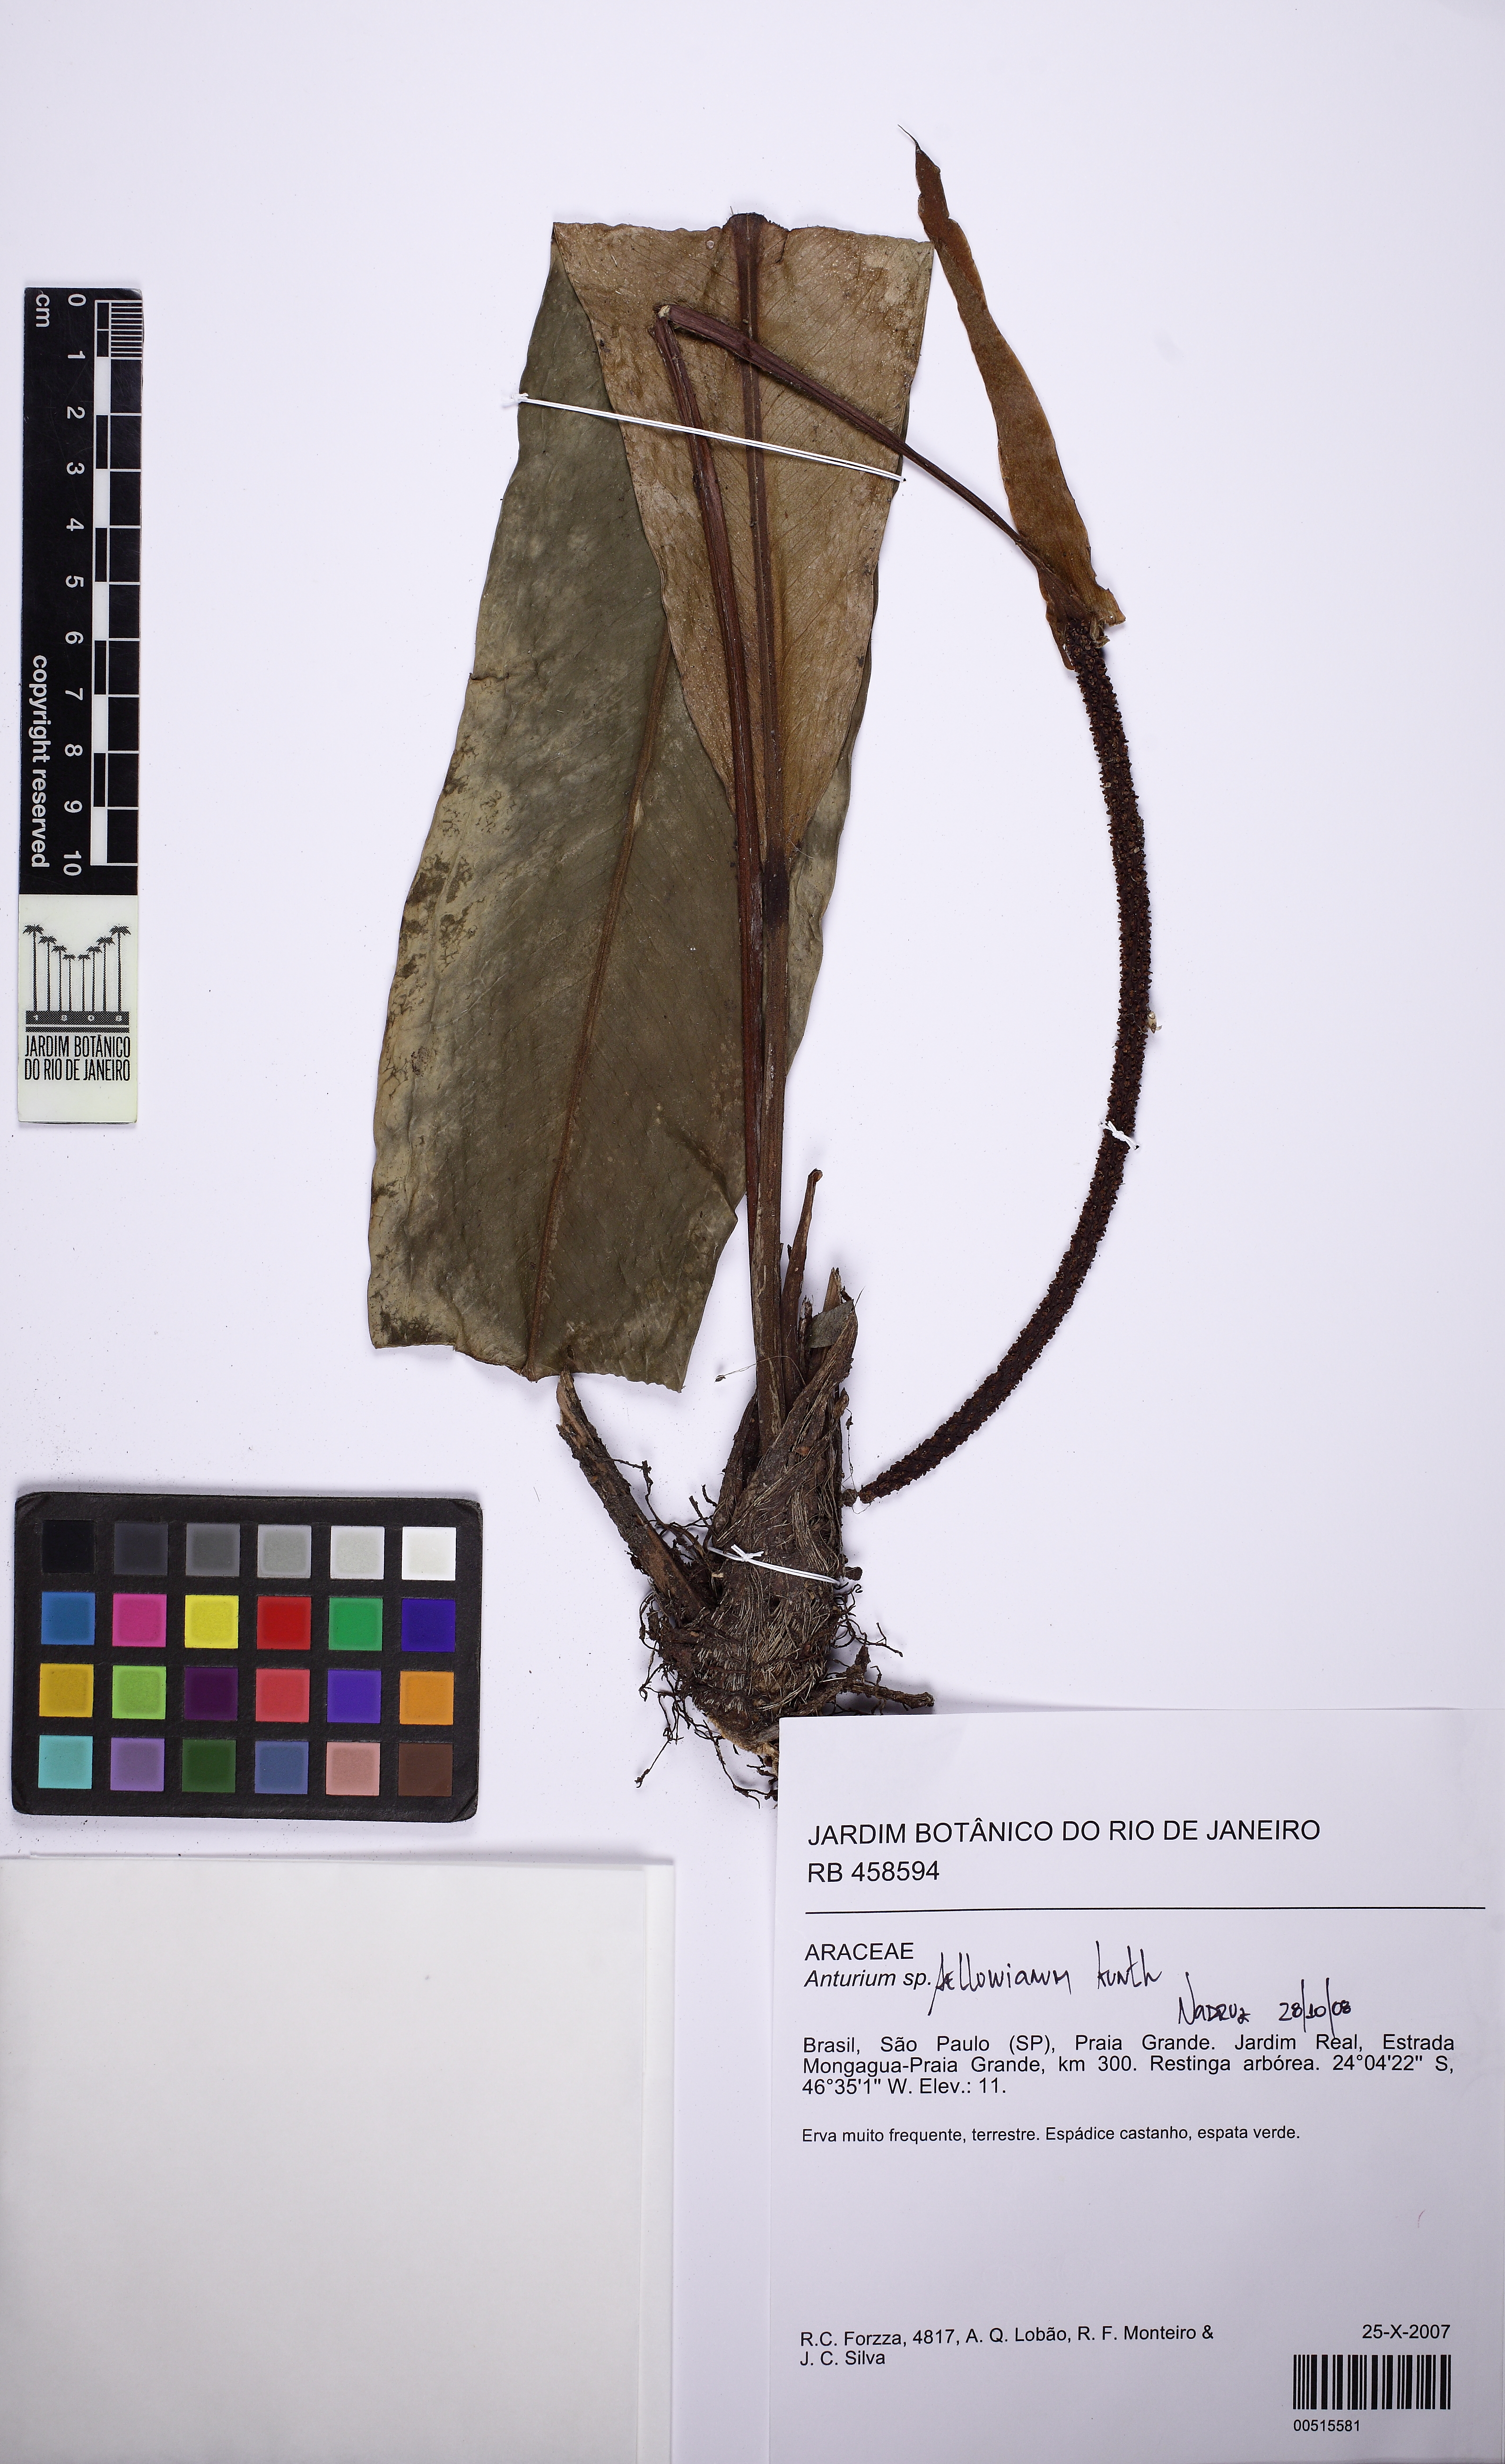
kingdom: Plantae
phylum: Tracheophyta
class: Liliopsida
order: Alismatales
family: Araceae
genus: Anthurium
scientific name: Anthurium sellowianum
